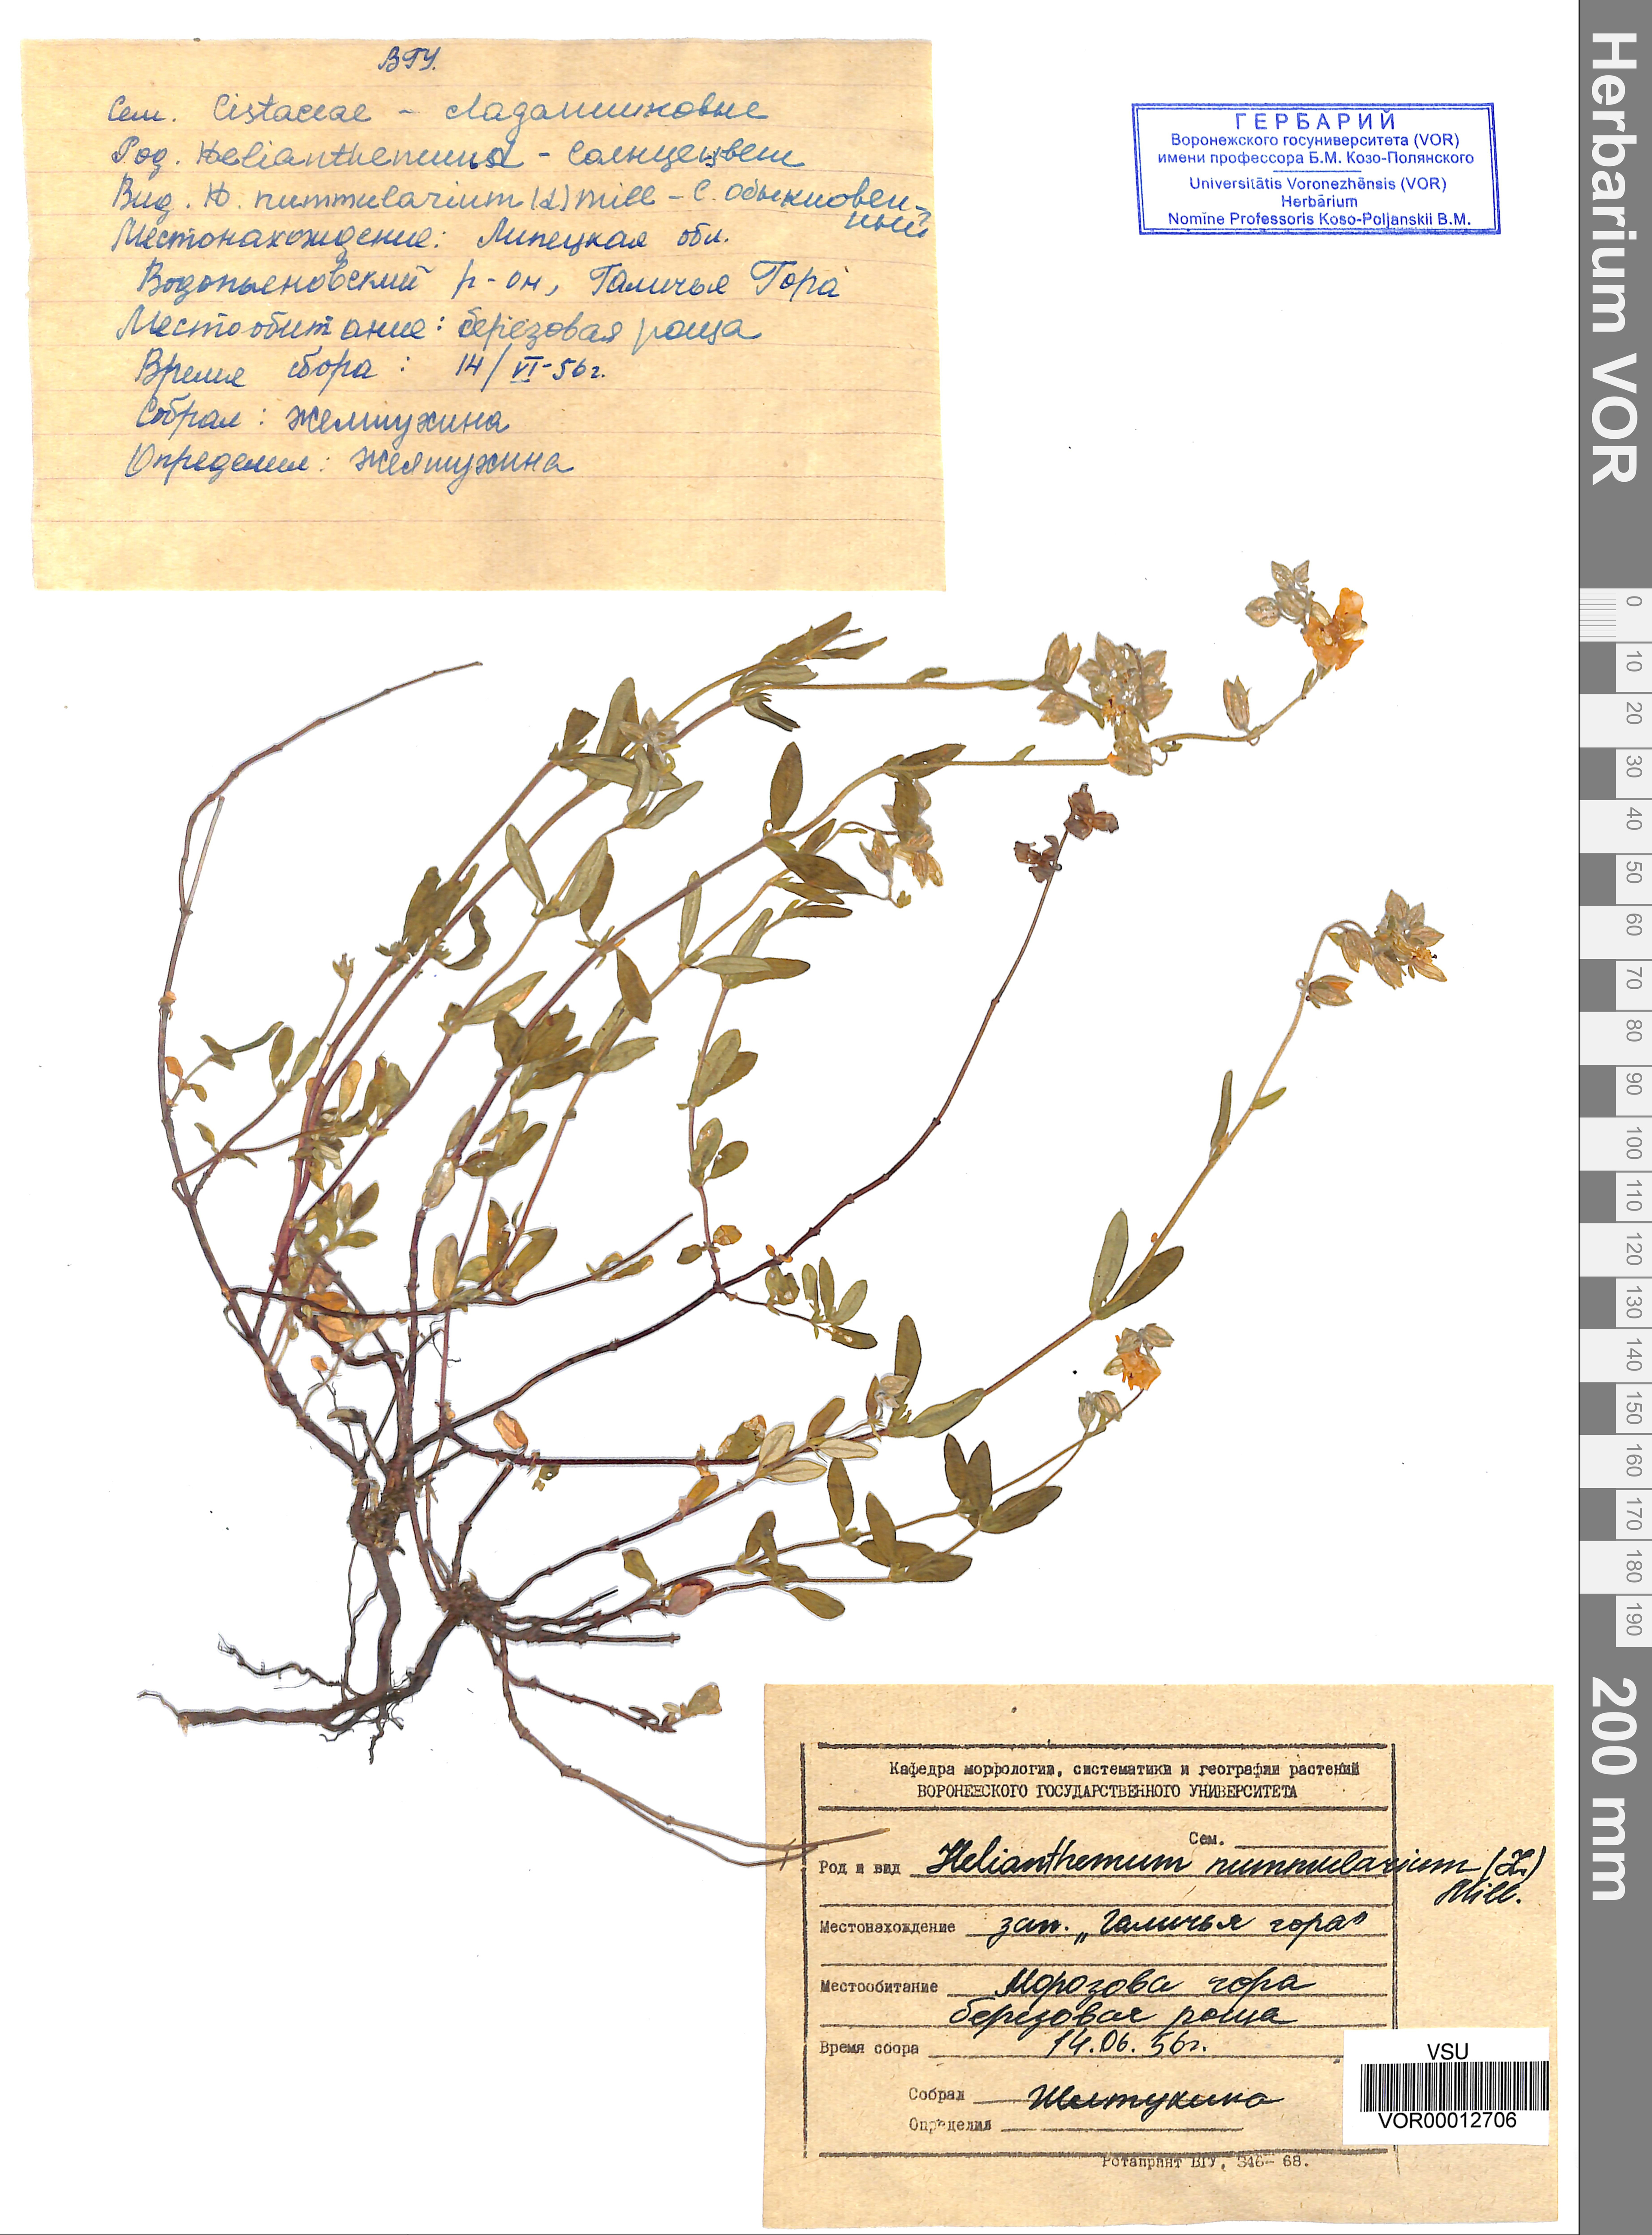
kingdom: Plantae
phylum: Tracheophyta
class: Magnoliopsida
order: Malvales
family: Cistaceae
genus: Helianthemum
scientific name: Helianthemum nummularium
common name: Common rock-rose
